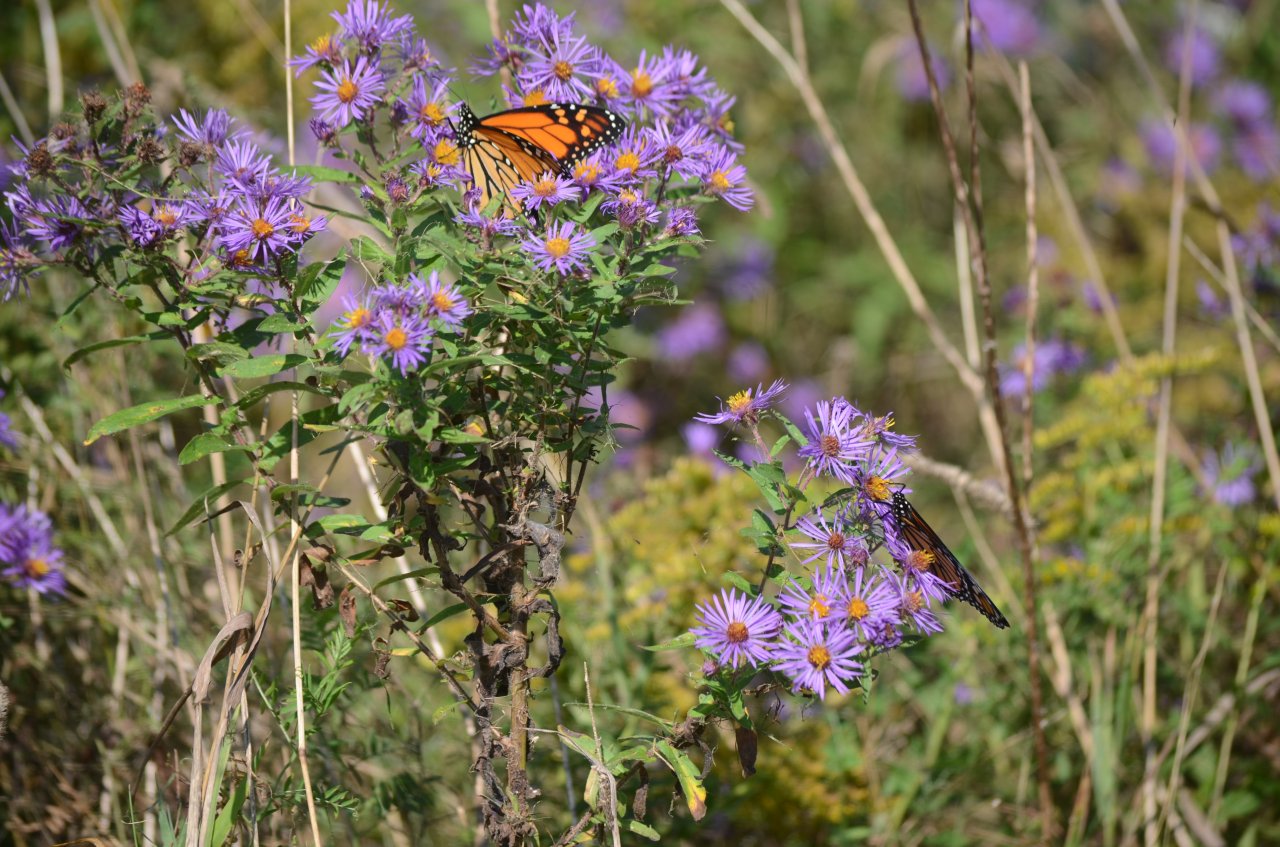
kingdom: Animalia
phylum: Arthropoda
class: Insecta
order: Lepidoptera
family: Nymphalidae
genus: Danaus
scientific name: Danaus plexippus
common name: Monarch
